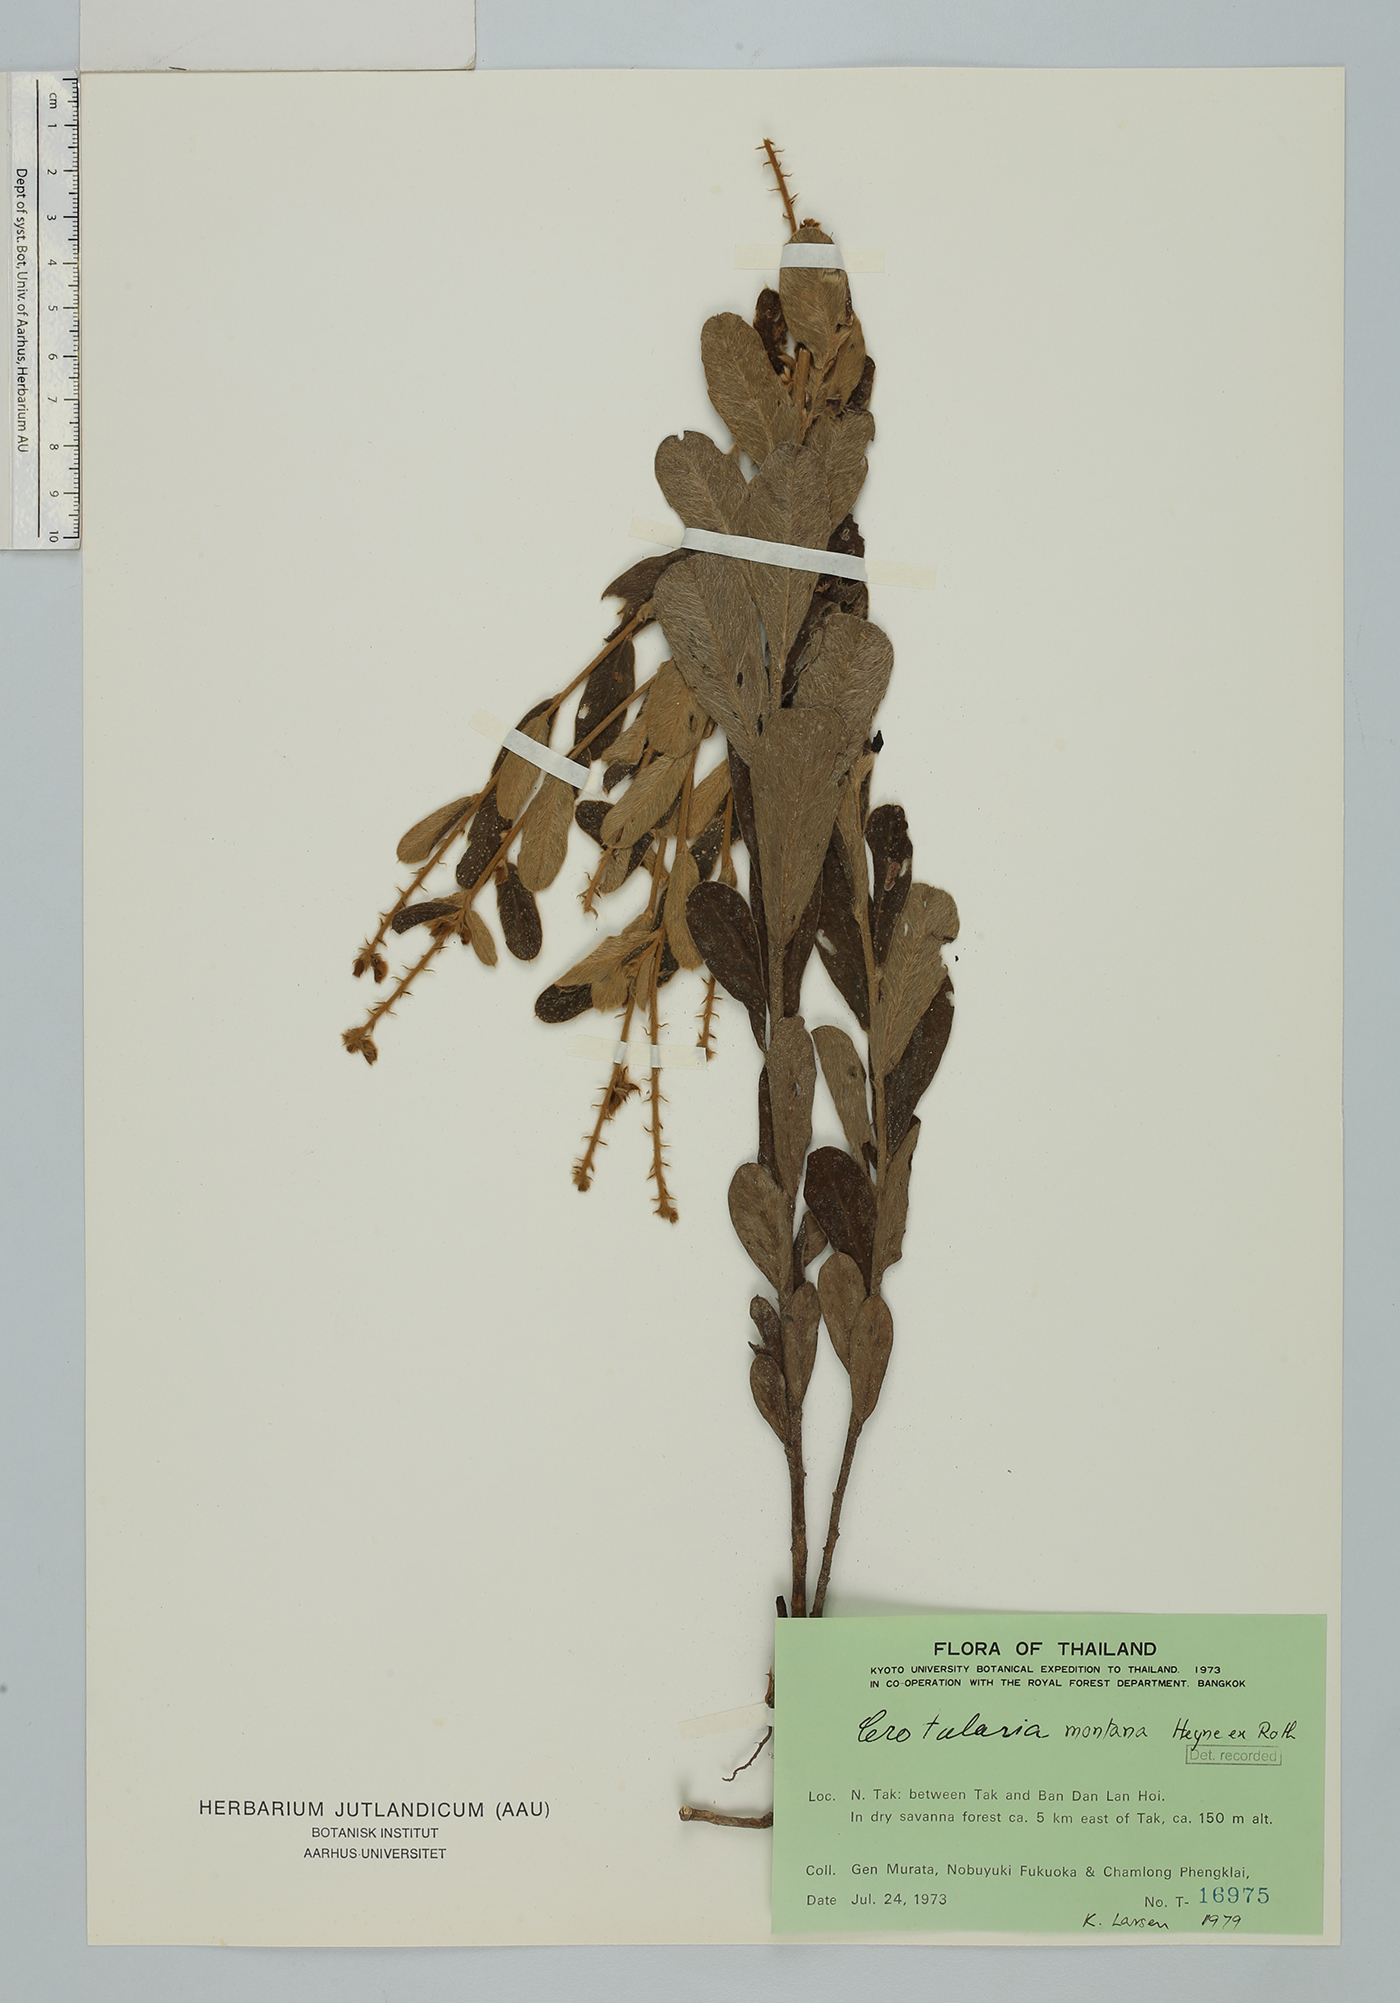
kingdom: Plantae
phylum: Tracheophyta
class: Magnoliopsida
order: Fabales
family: Fabaceae
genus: Crotalaria
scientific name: Crotalaria albida
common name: Taiwan crotalaria
